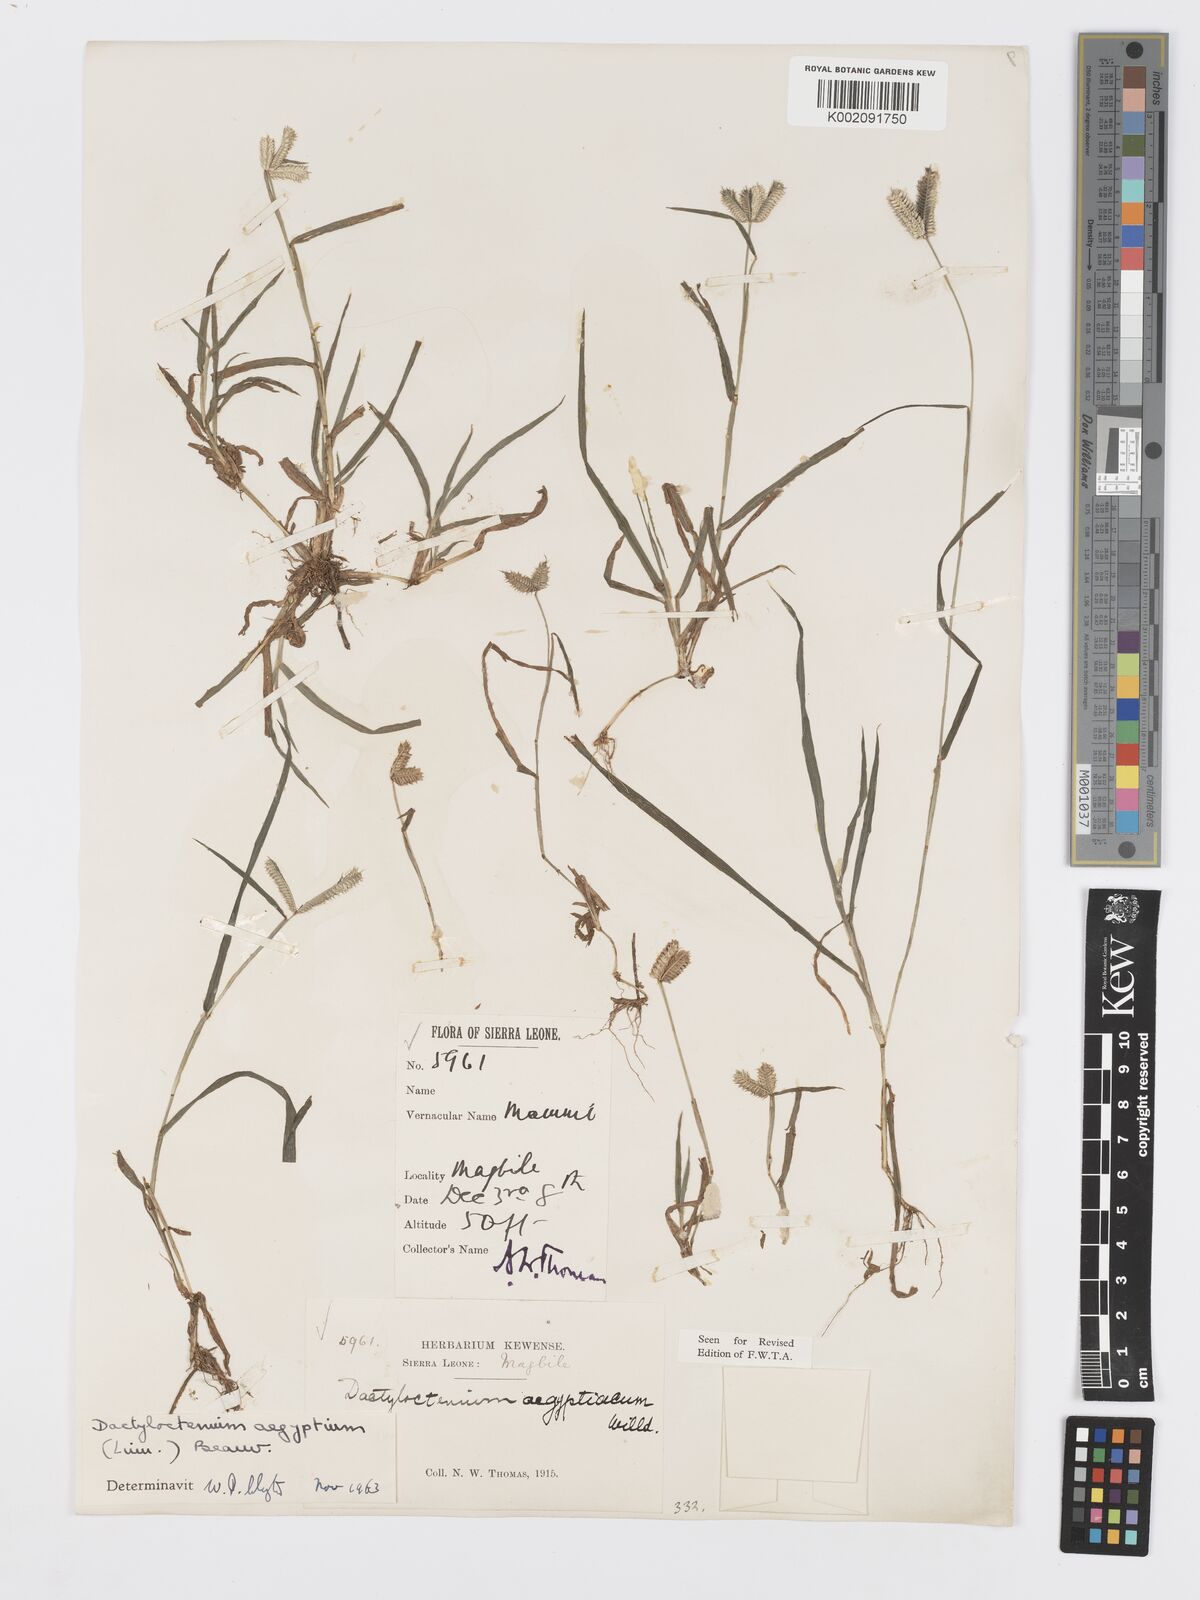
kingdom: Plantae
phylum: Tracheophyta
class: Liliopsida
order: Poales
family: Poaceae
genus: Dactyloctenium
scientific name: Dactyloctenium aegyptium
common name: Egyptian grass
